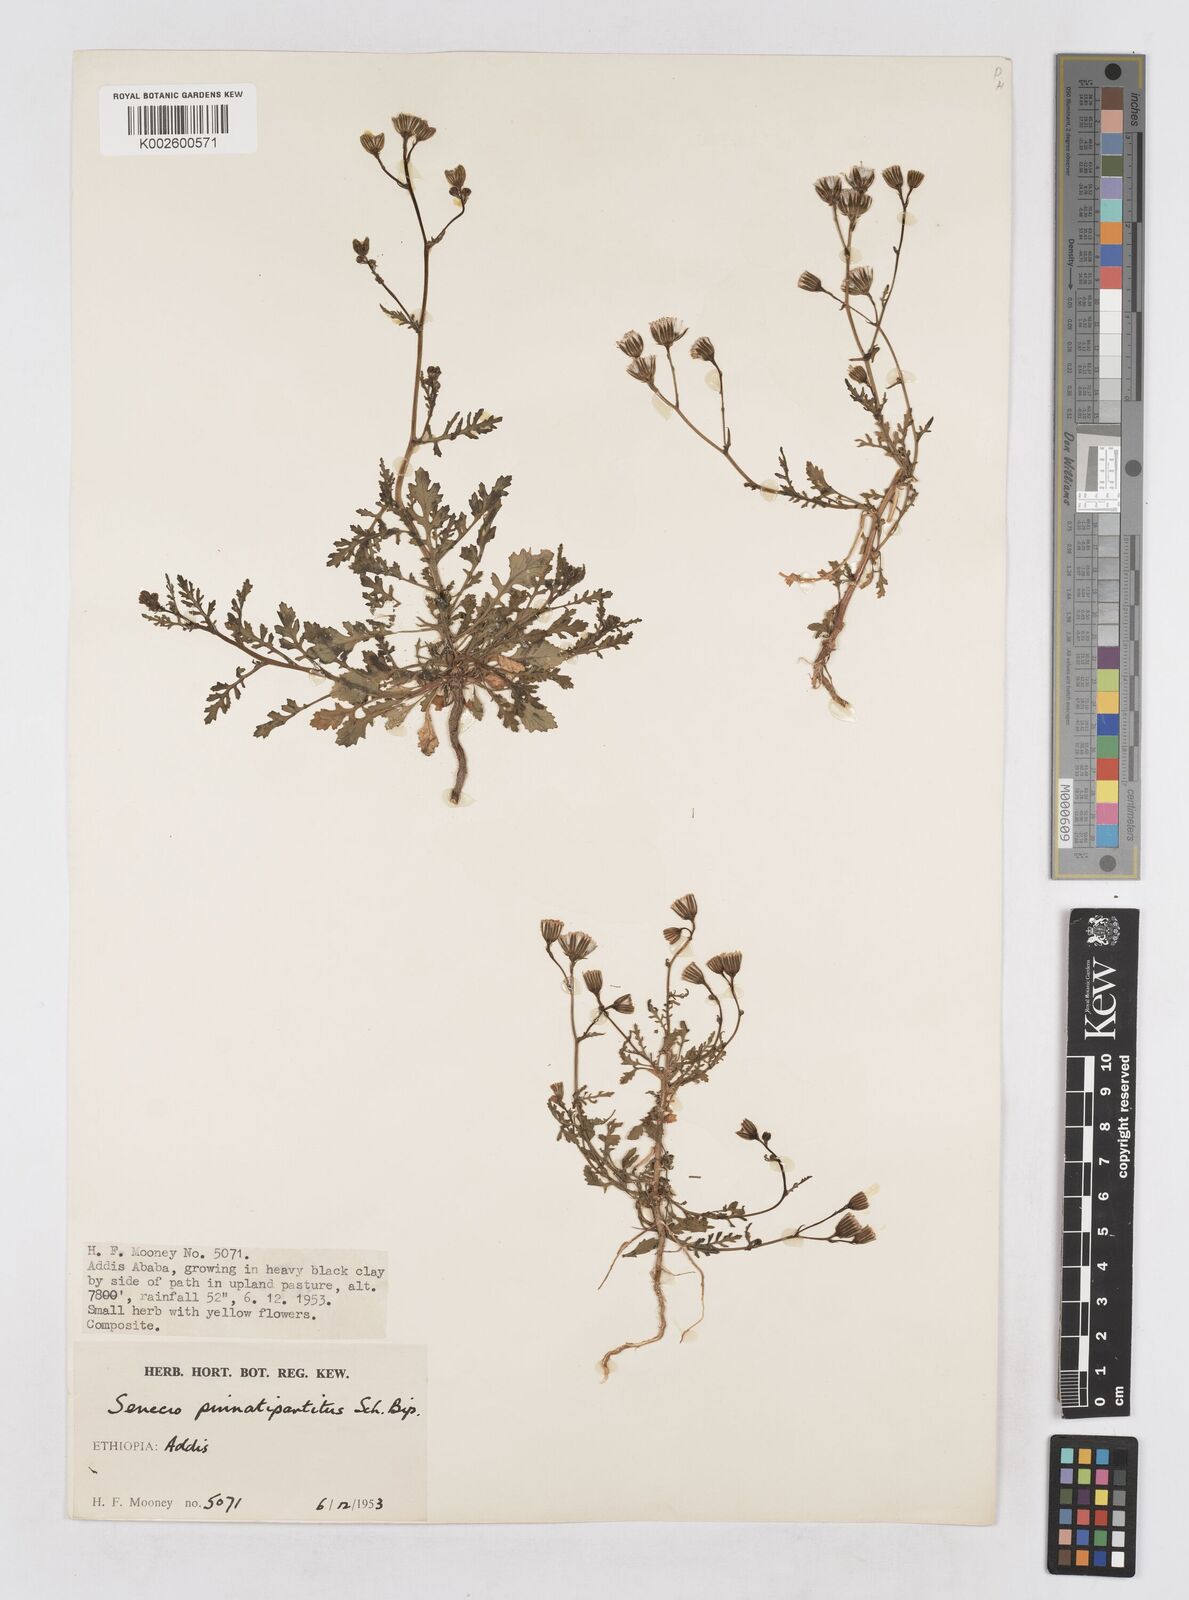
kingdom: Plantae
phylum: Tracheophyta
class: Magnoliopsida
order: Asterales
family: Asteraceae
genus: Senecio
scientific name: Senecio pinnatipartitus
